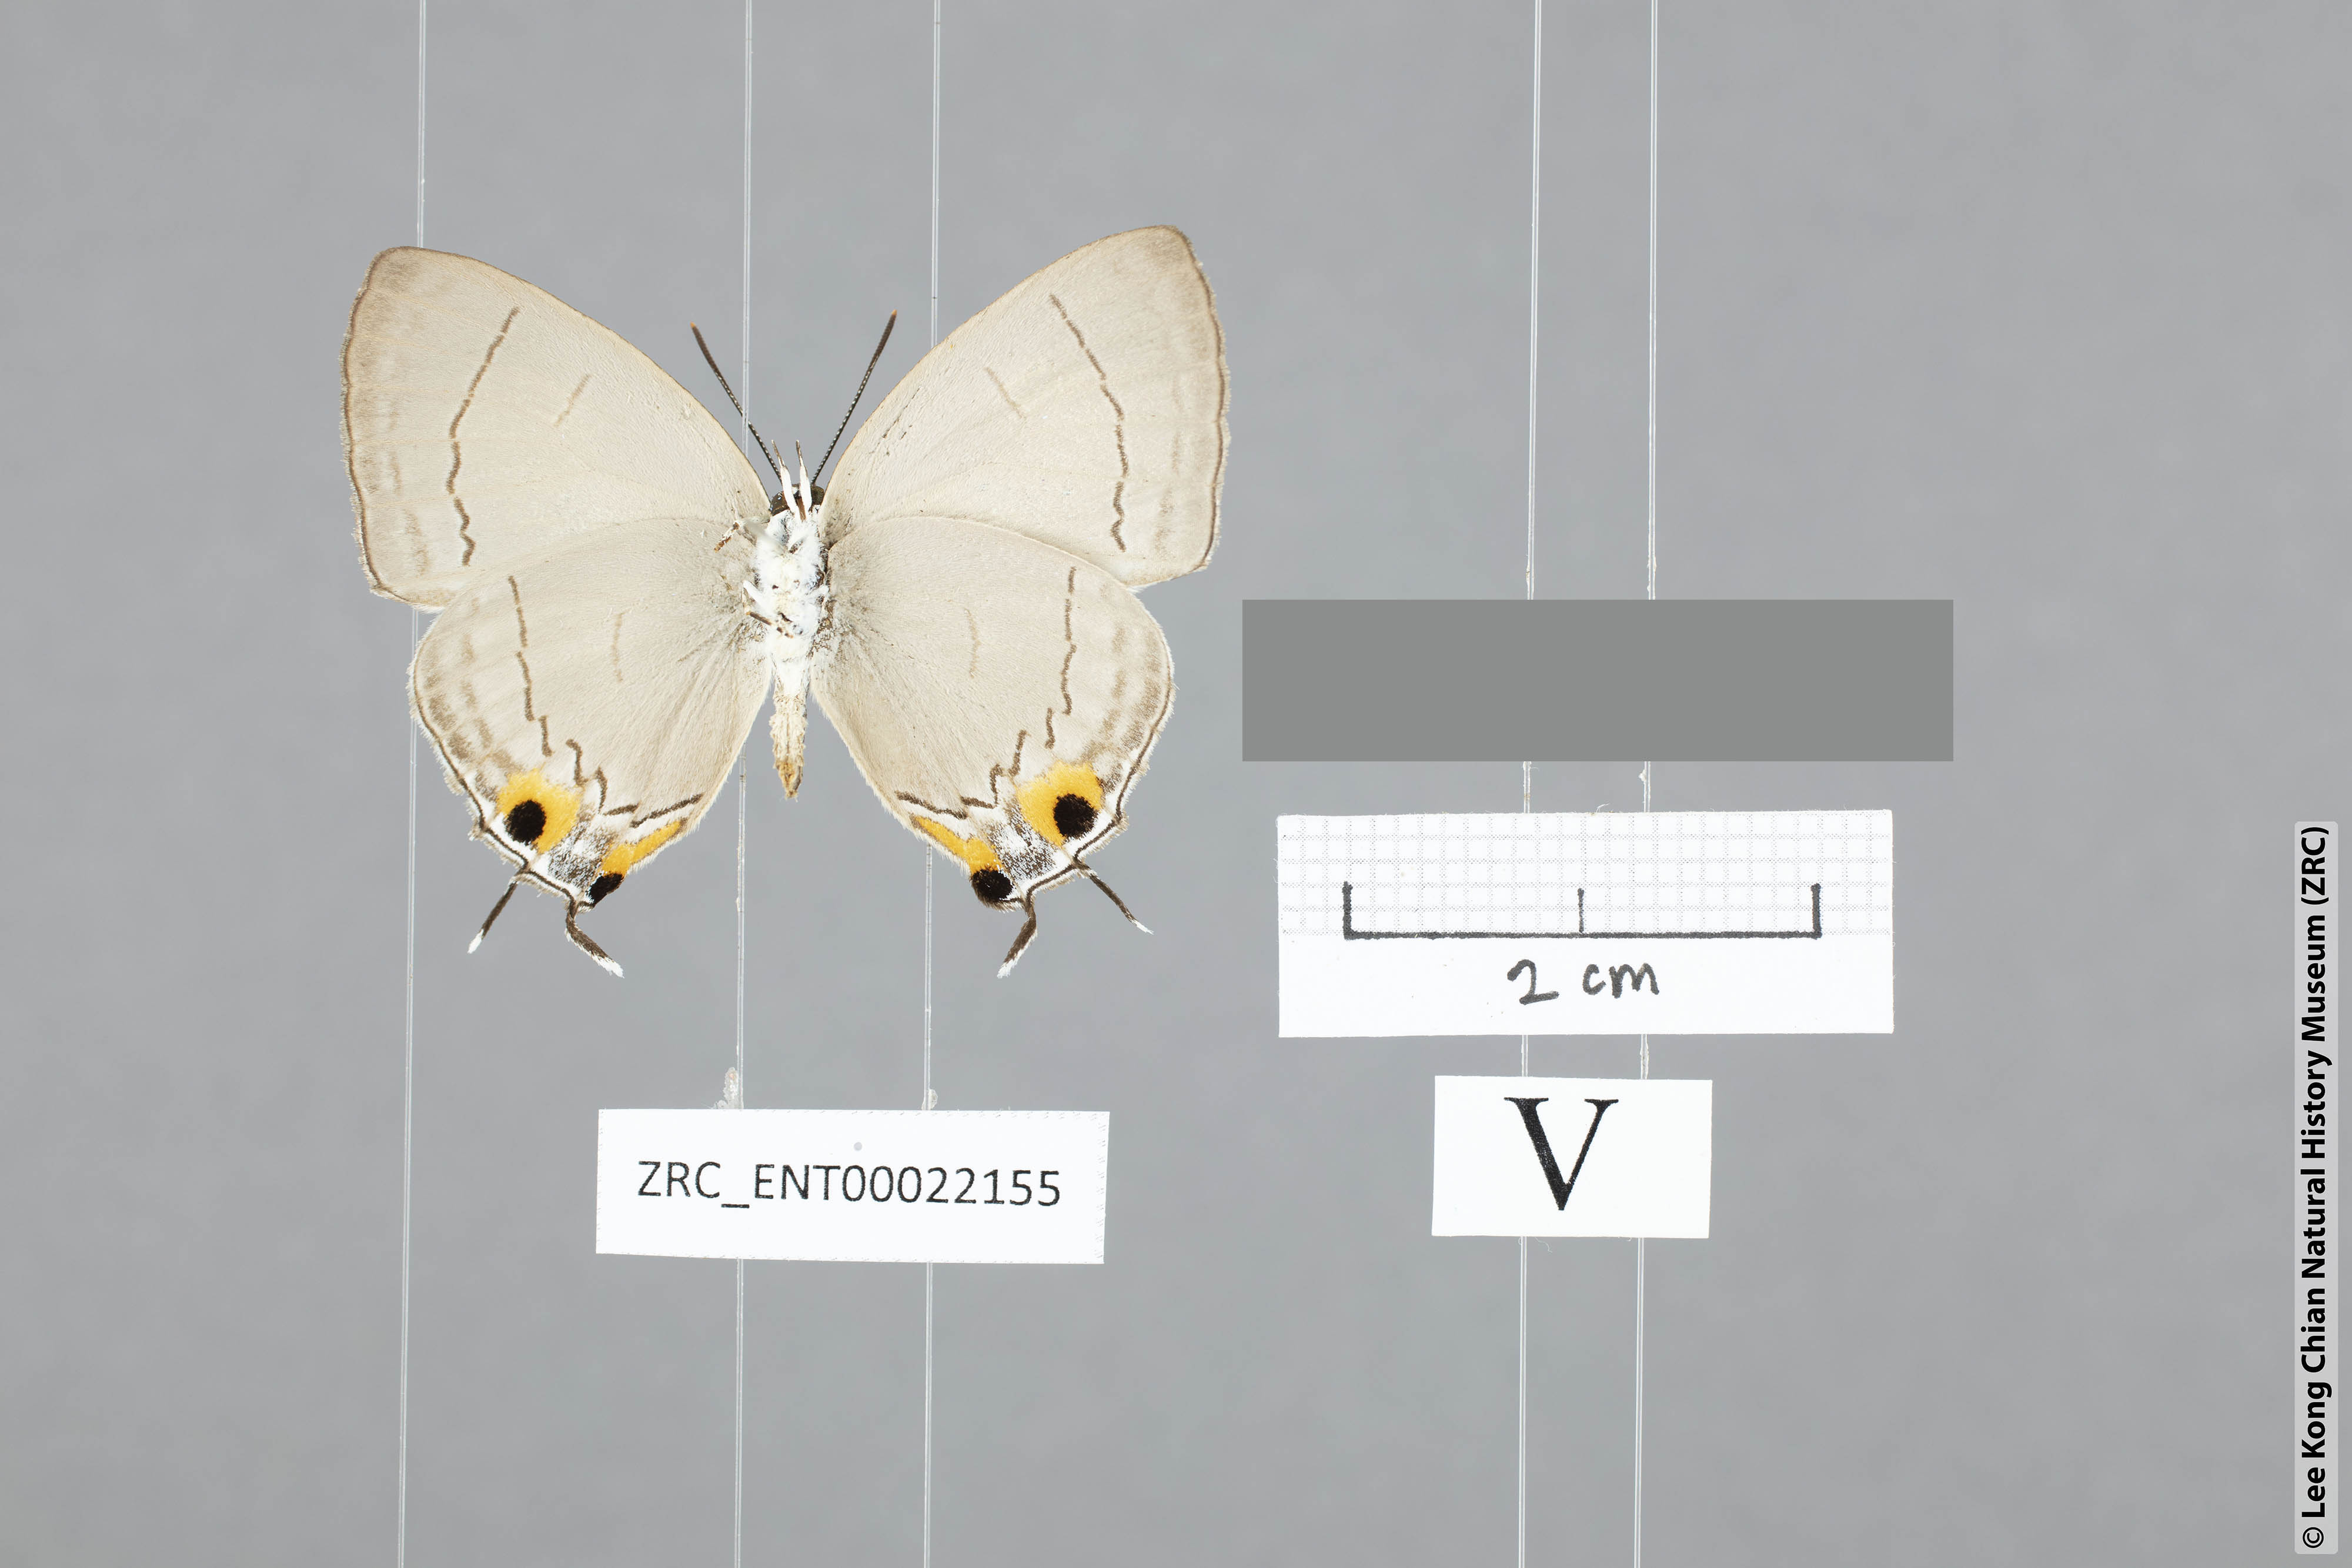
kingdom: Animalia
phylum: Arthropoda
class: Insecta
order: Lepidoptera
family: Lycaenidae
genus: Tajuria
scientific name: Tajuria jalajala
